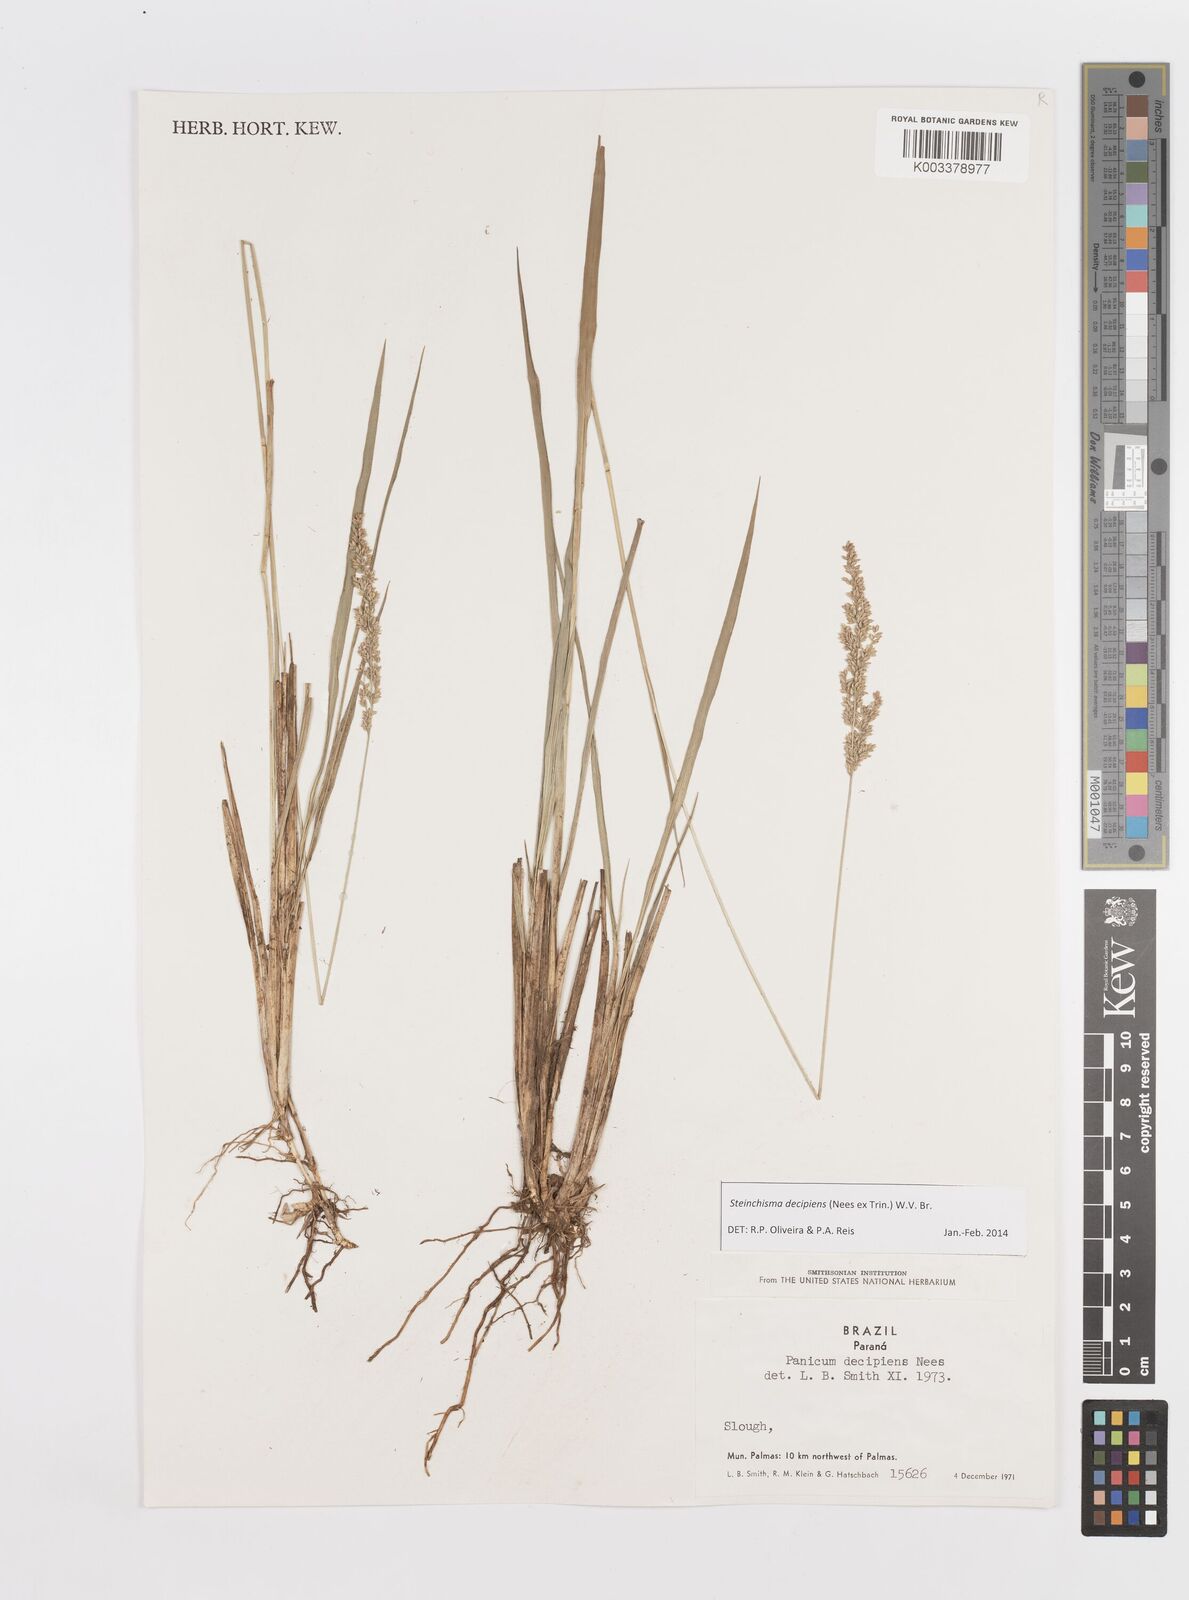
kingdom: Plantae
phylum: Tracheophyta
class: Liliopsida
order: Poales
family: Poaceae
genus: Steinchisma
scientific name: Steinchisma decipiens
